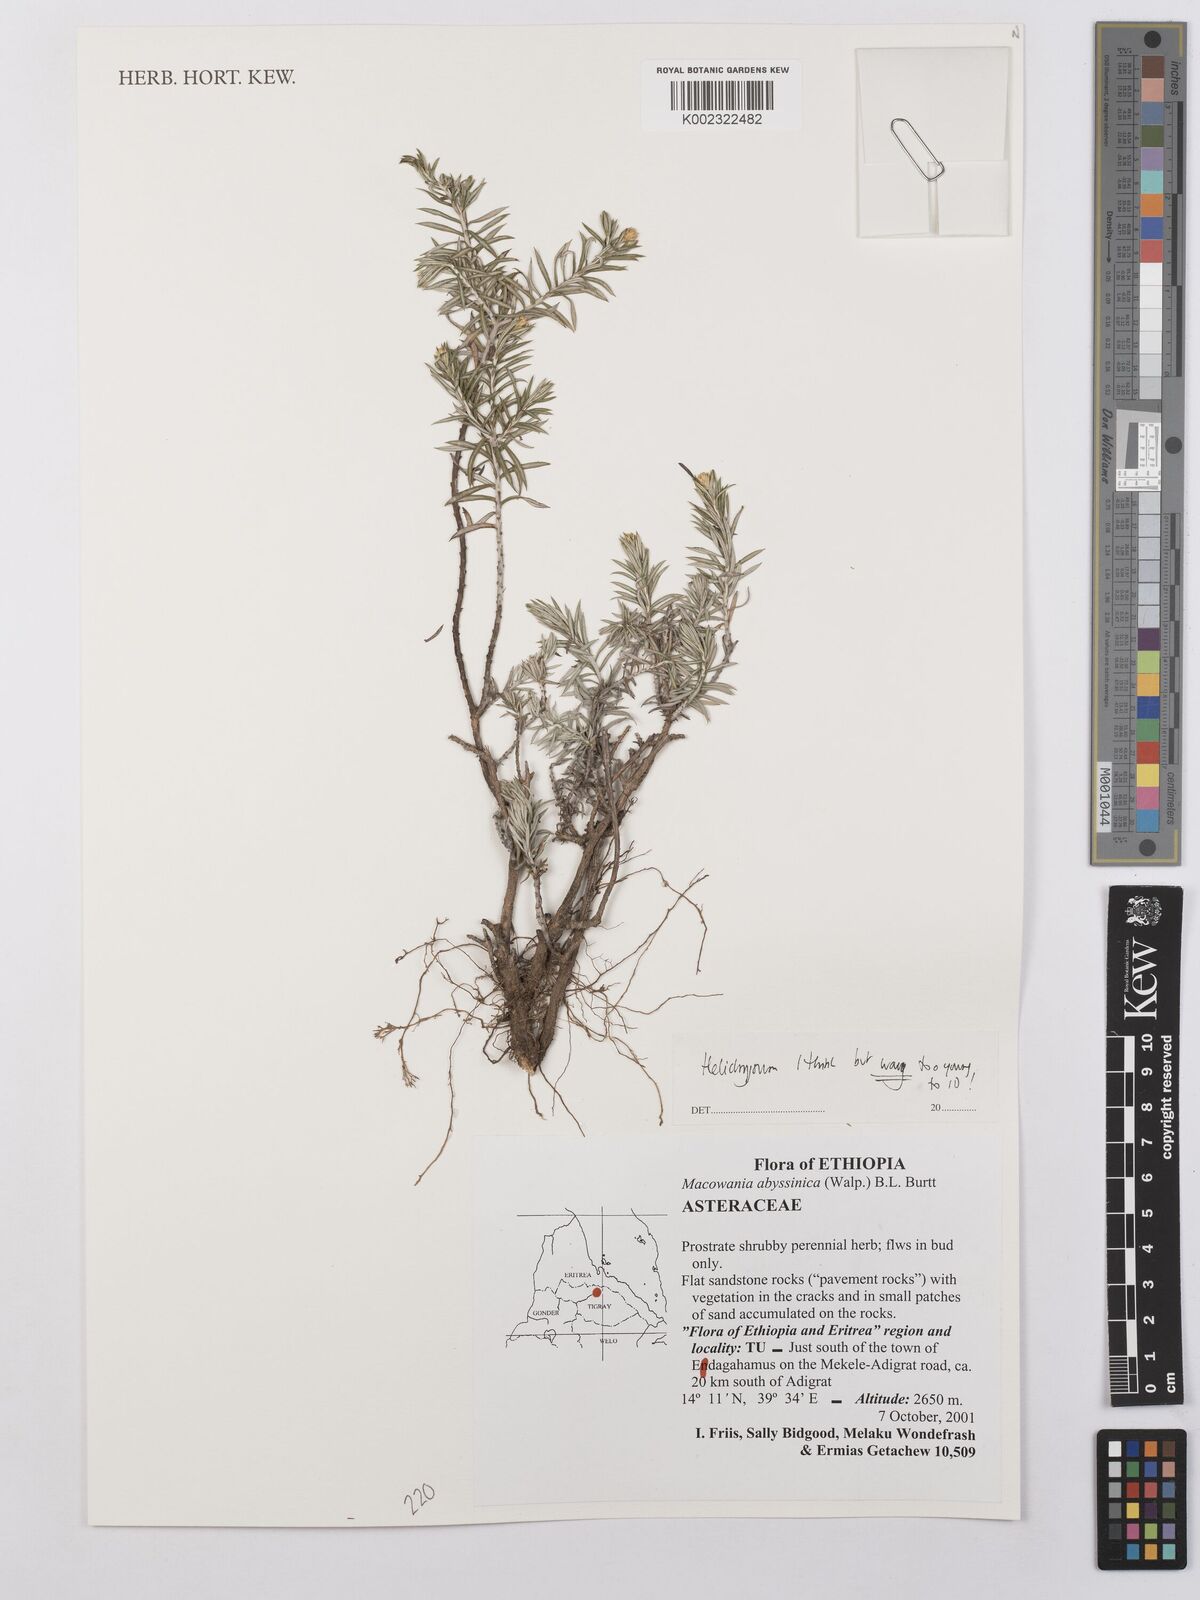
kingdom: Plantae
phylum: Tracheophyta
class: Magnoliopsida
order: Asterales
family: Asteraceae
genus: Helichrysum
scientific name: Helichrysum
